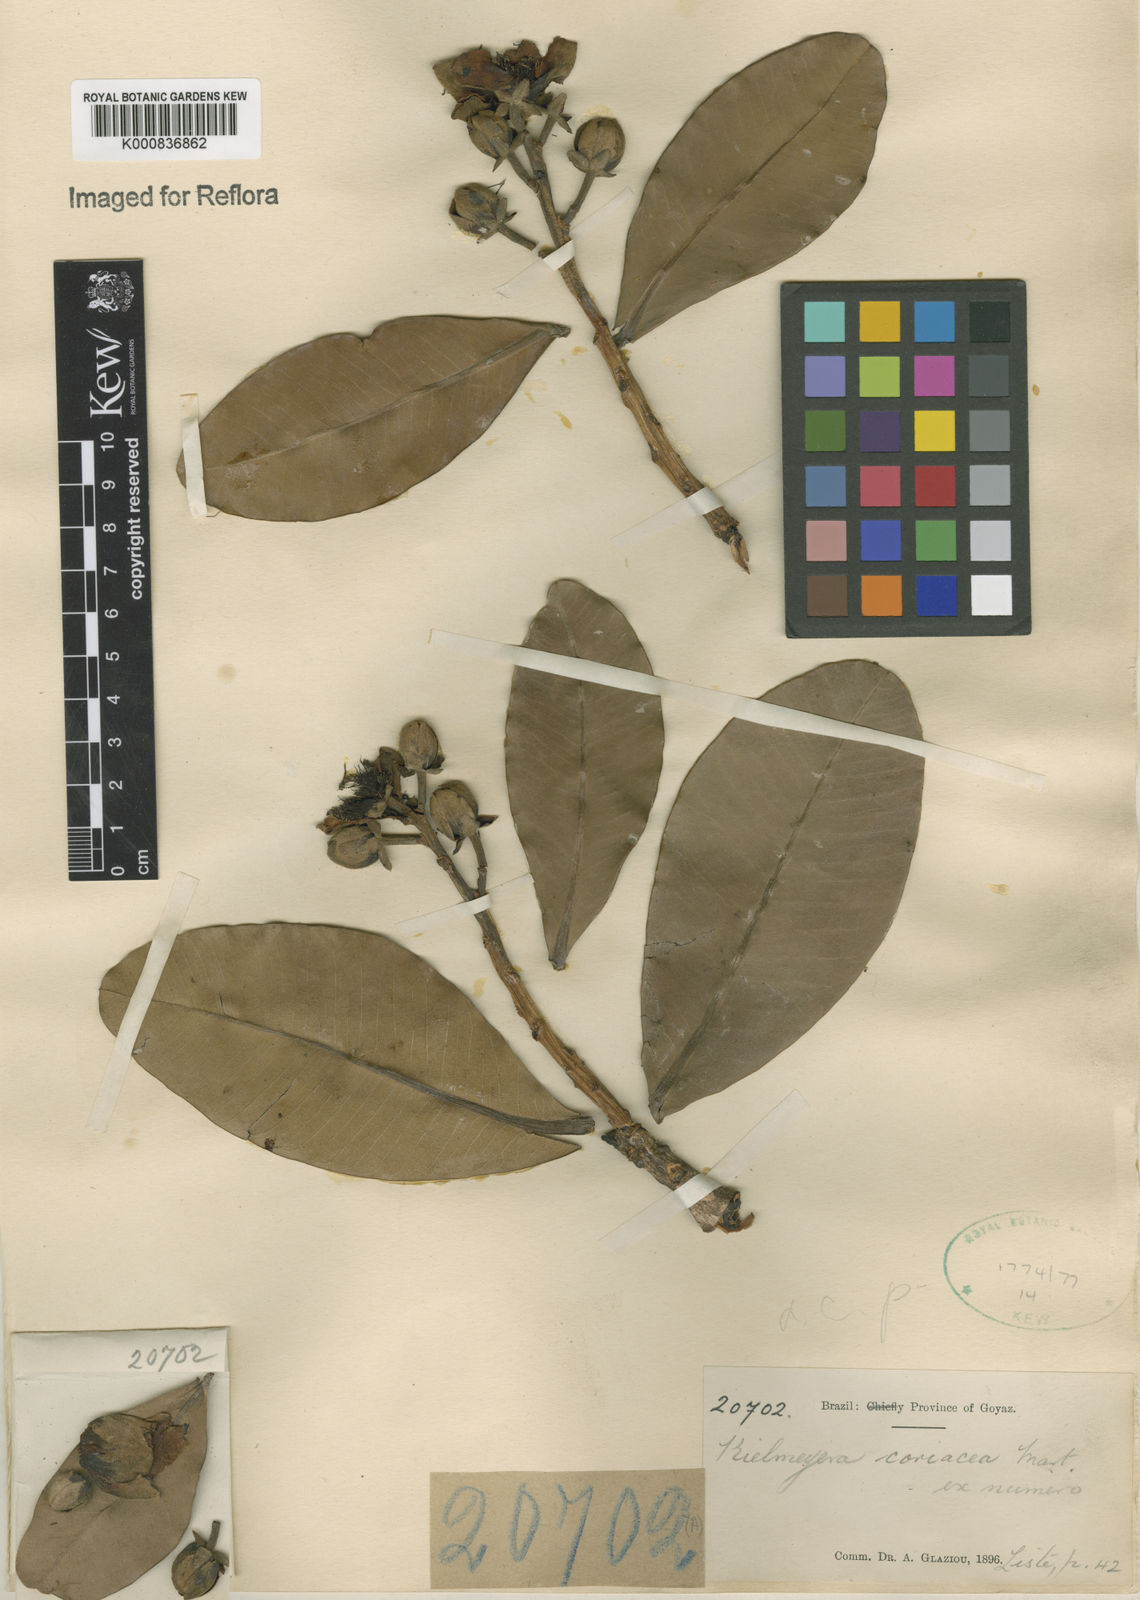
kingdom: Plantae
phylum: Tracheophyta
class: Magnoliopsida
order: Malpighiales
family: Calophyllaceae
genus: Kielmeyera
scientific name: Kielmeyera coriacea
